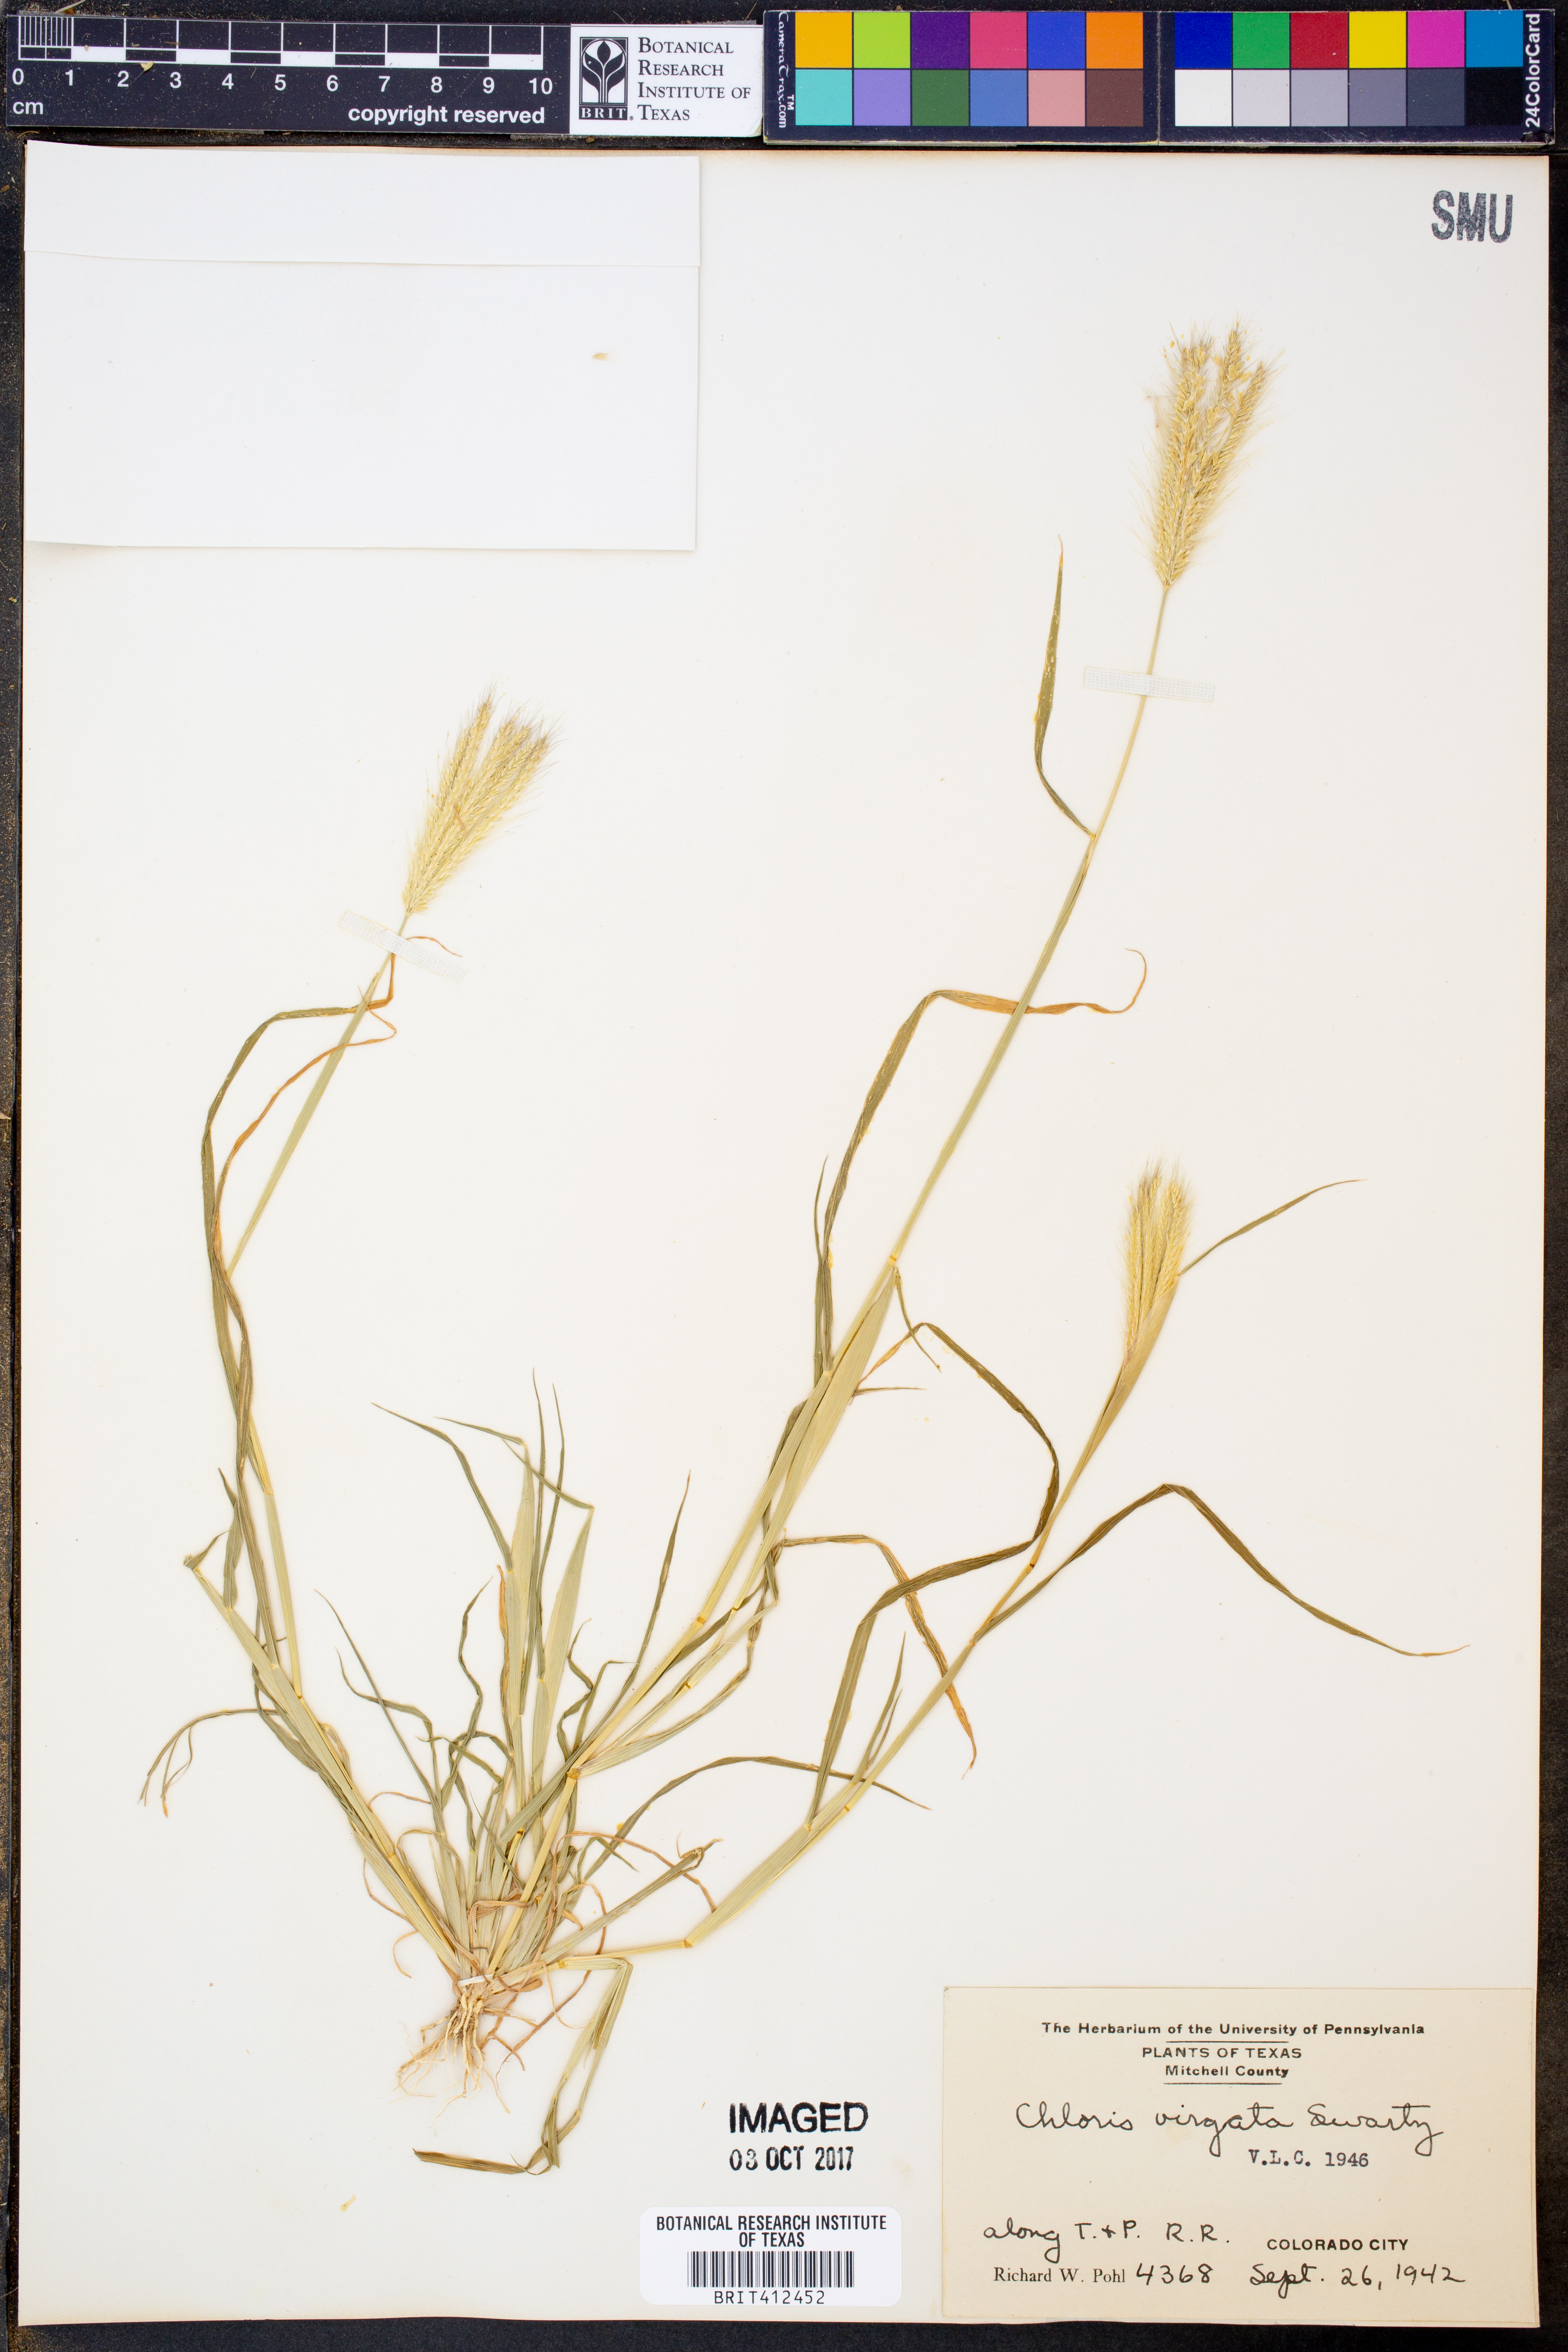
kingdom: Plantae
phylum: Tracheophyta
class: Liliopsida
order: Poales
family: Poaceae
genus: Chloris
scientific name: Chloris virgata
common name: Feathery rhodes-grass
